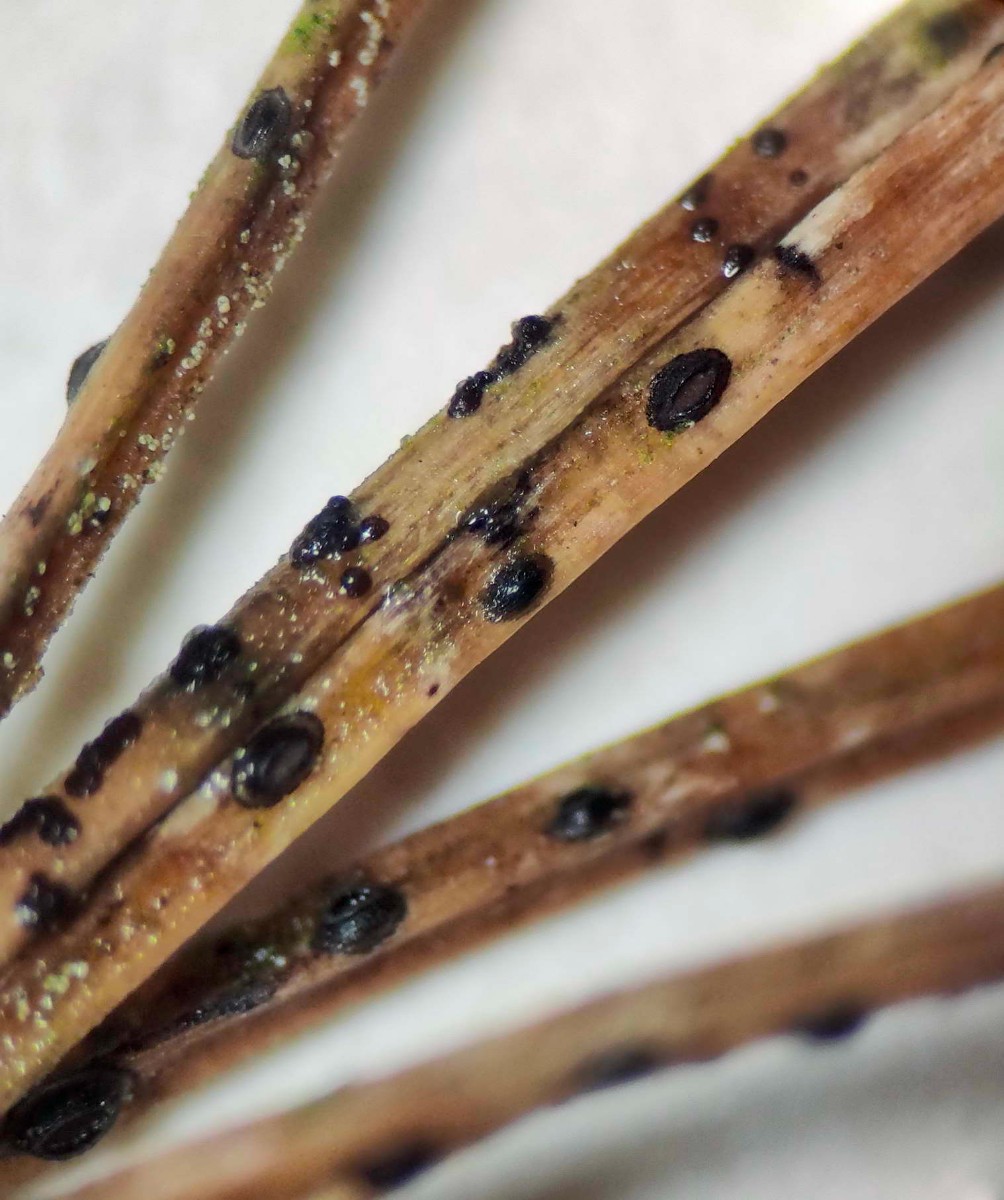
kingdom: Fungi
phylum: Ascomycota
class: Leotiomycetes
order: Rhytismatales
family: Rhytismataceae
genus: Lophodermium
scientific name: Lophodermium pini-excelsae
